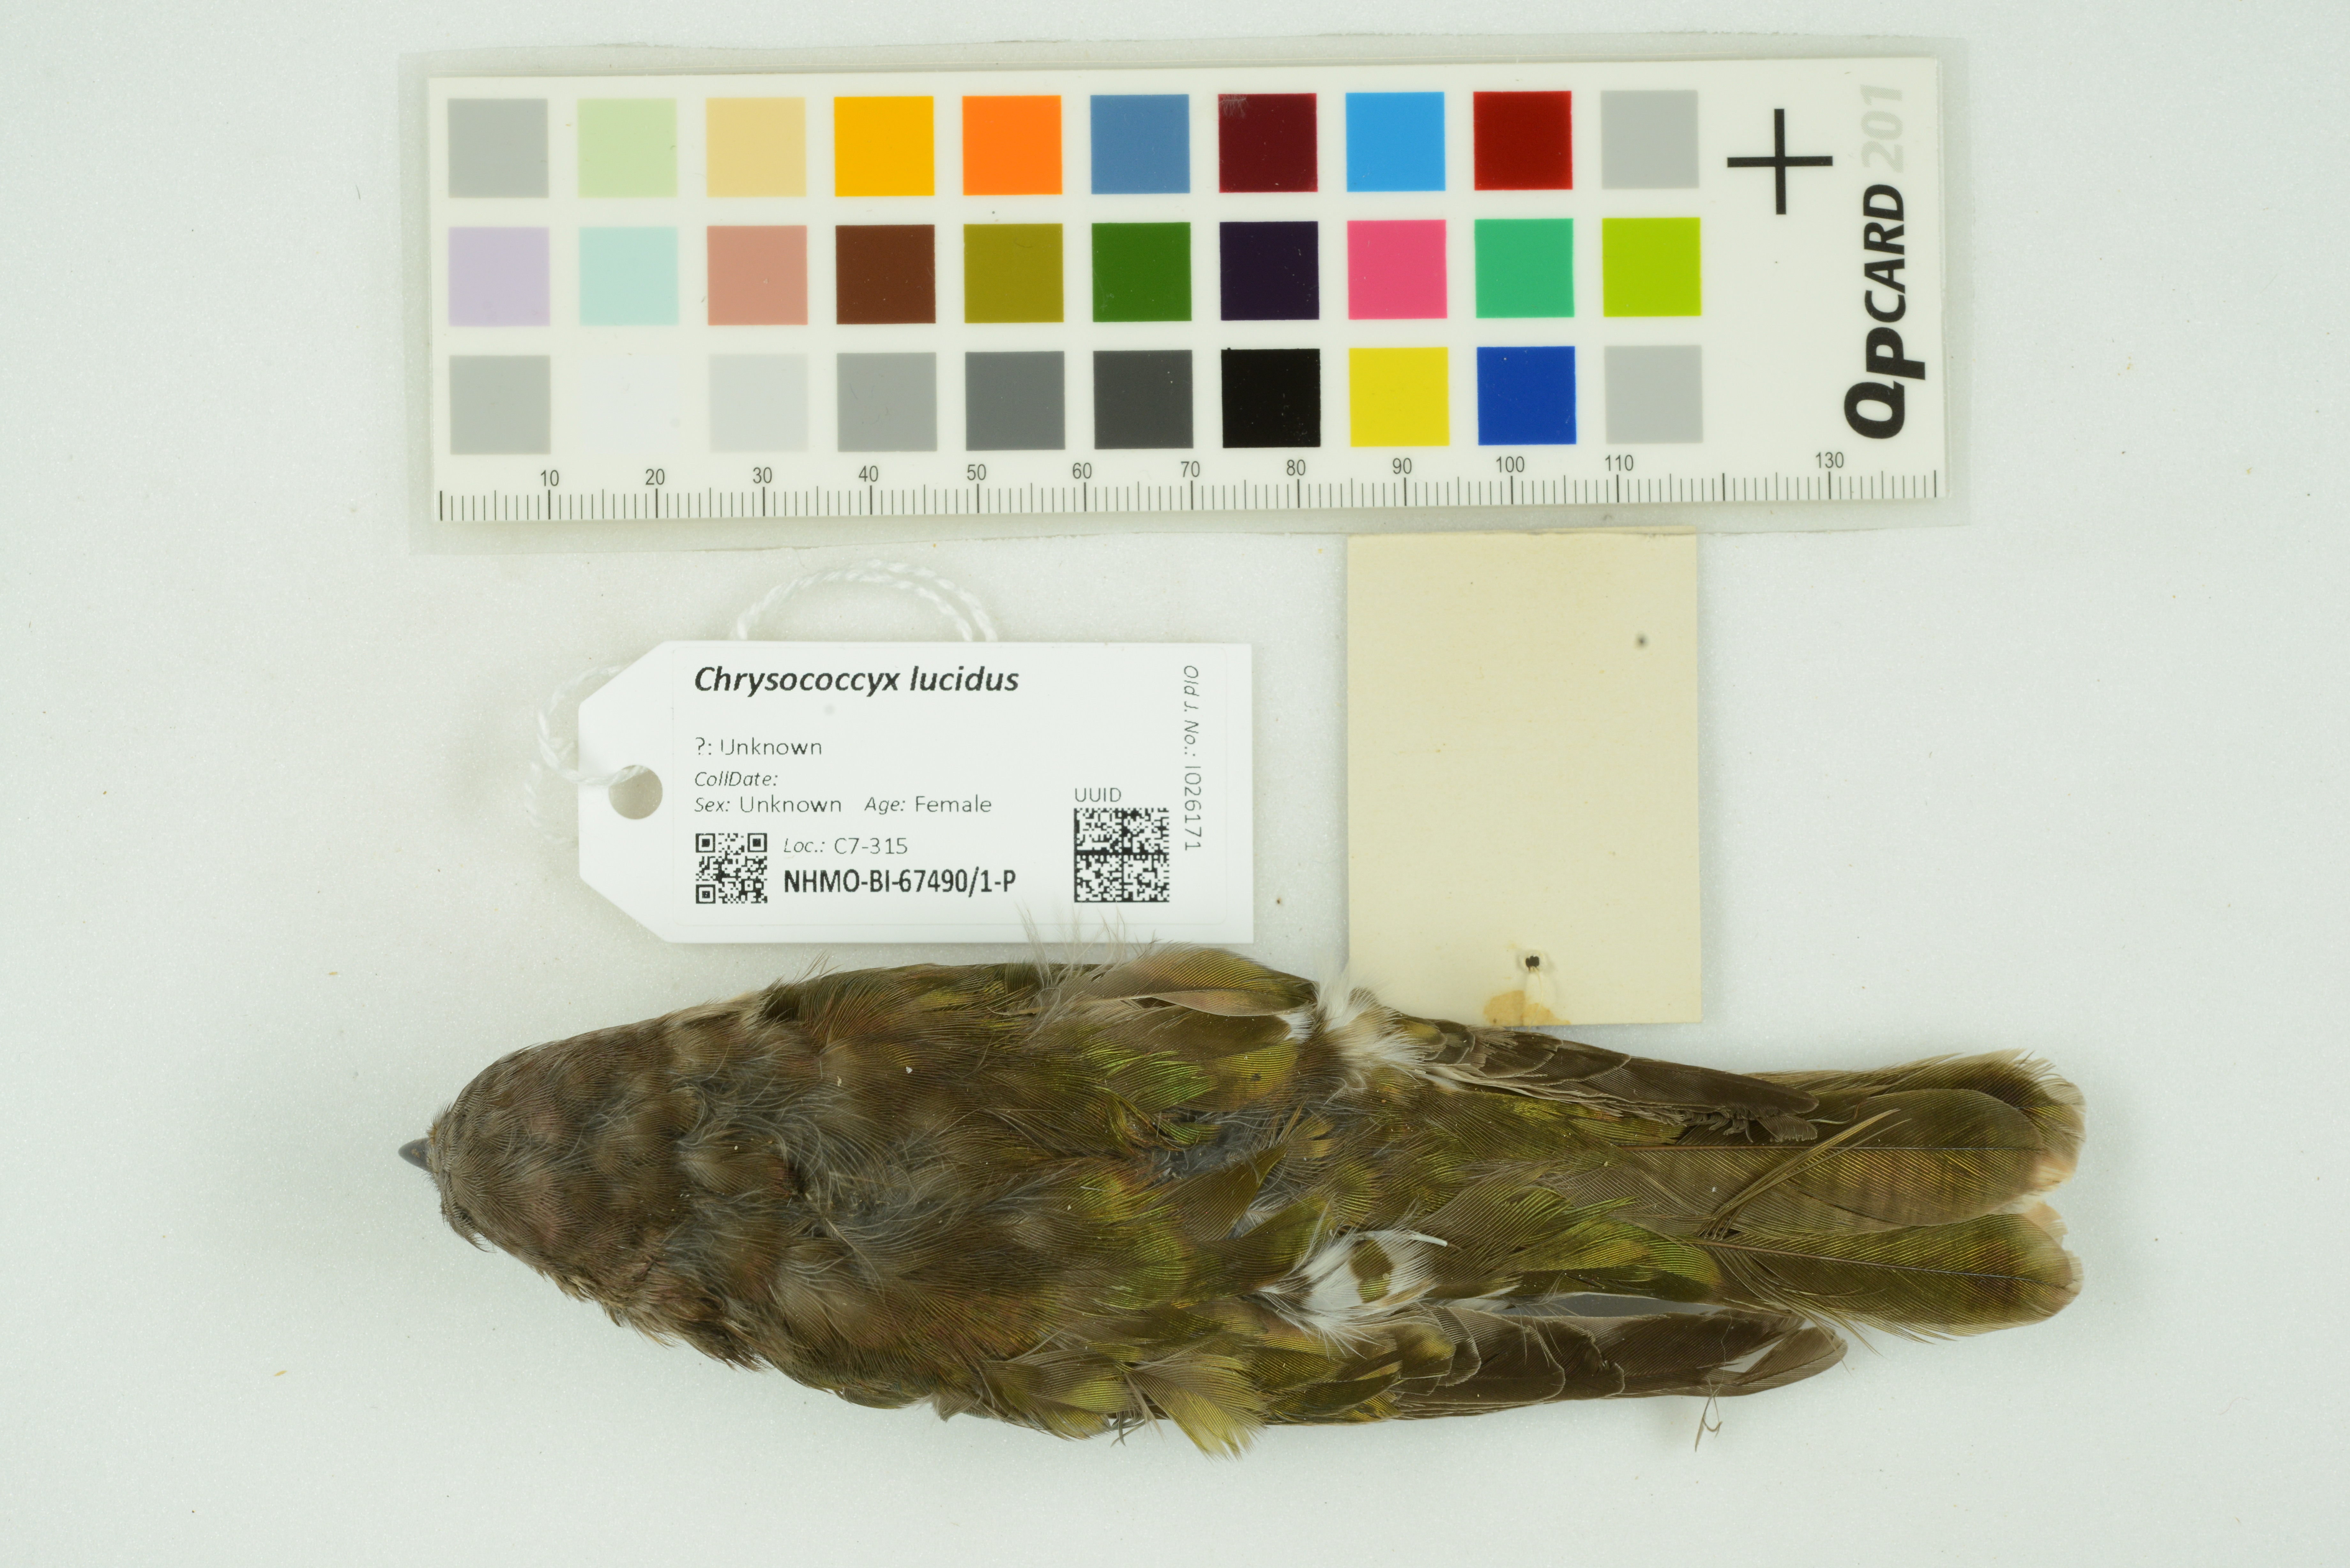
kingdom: Animalia
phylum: Chordata
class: Aves
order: Cuculiformes
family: Cuculidae
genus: Chrysococcyx
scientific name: Chrysococcyx lucidus
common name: Shining bronze cuckoo
